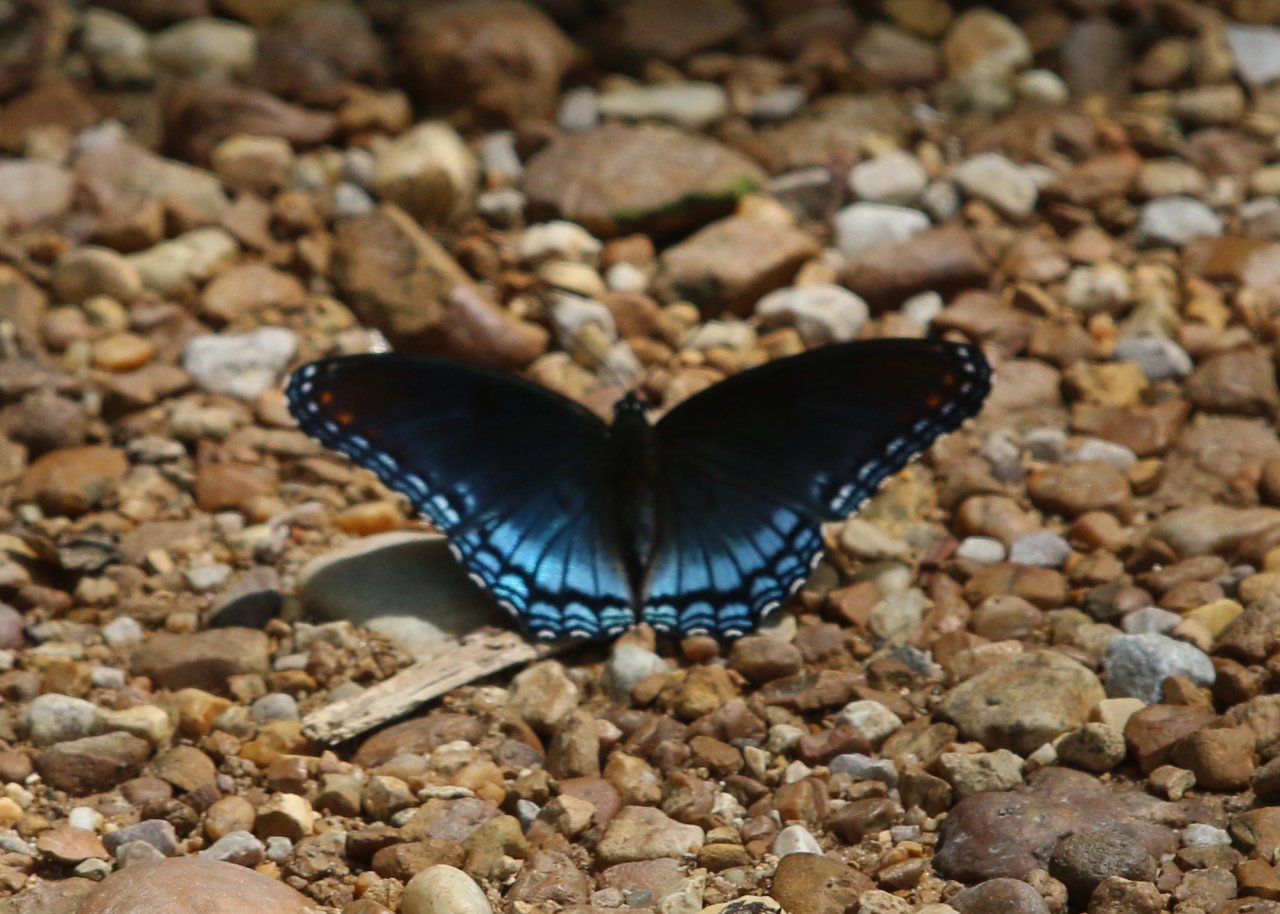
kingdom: Animalia
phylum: Arthropoda
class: Insecta
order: Lepidoptera
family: Nymphalidae
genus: Limenitis
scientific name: Limenitis astyanax
